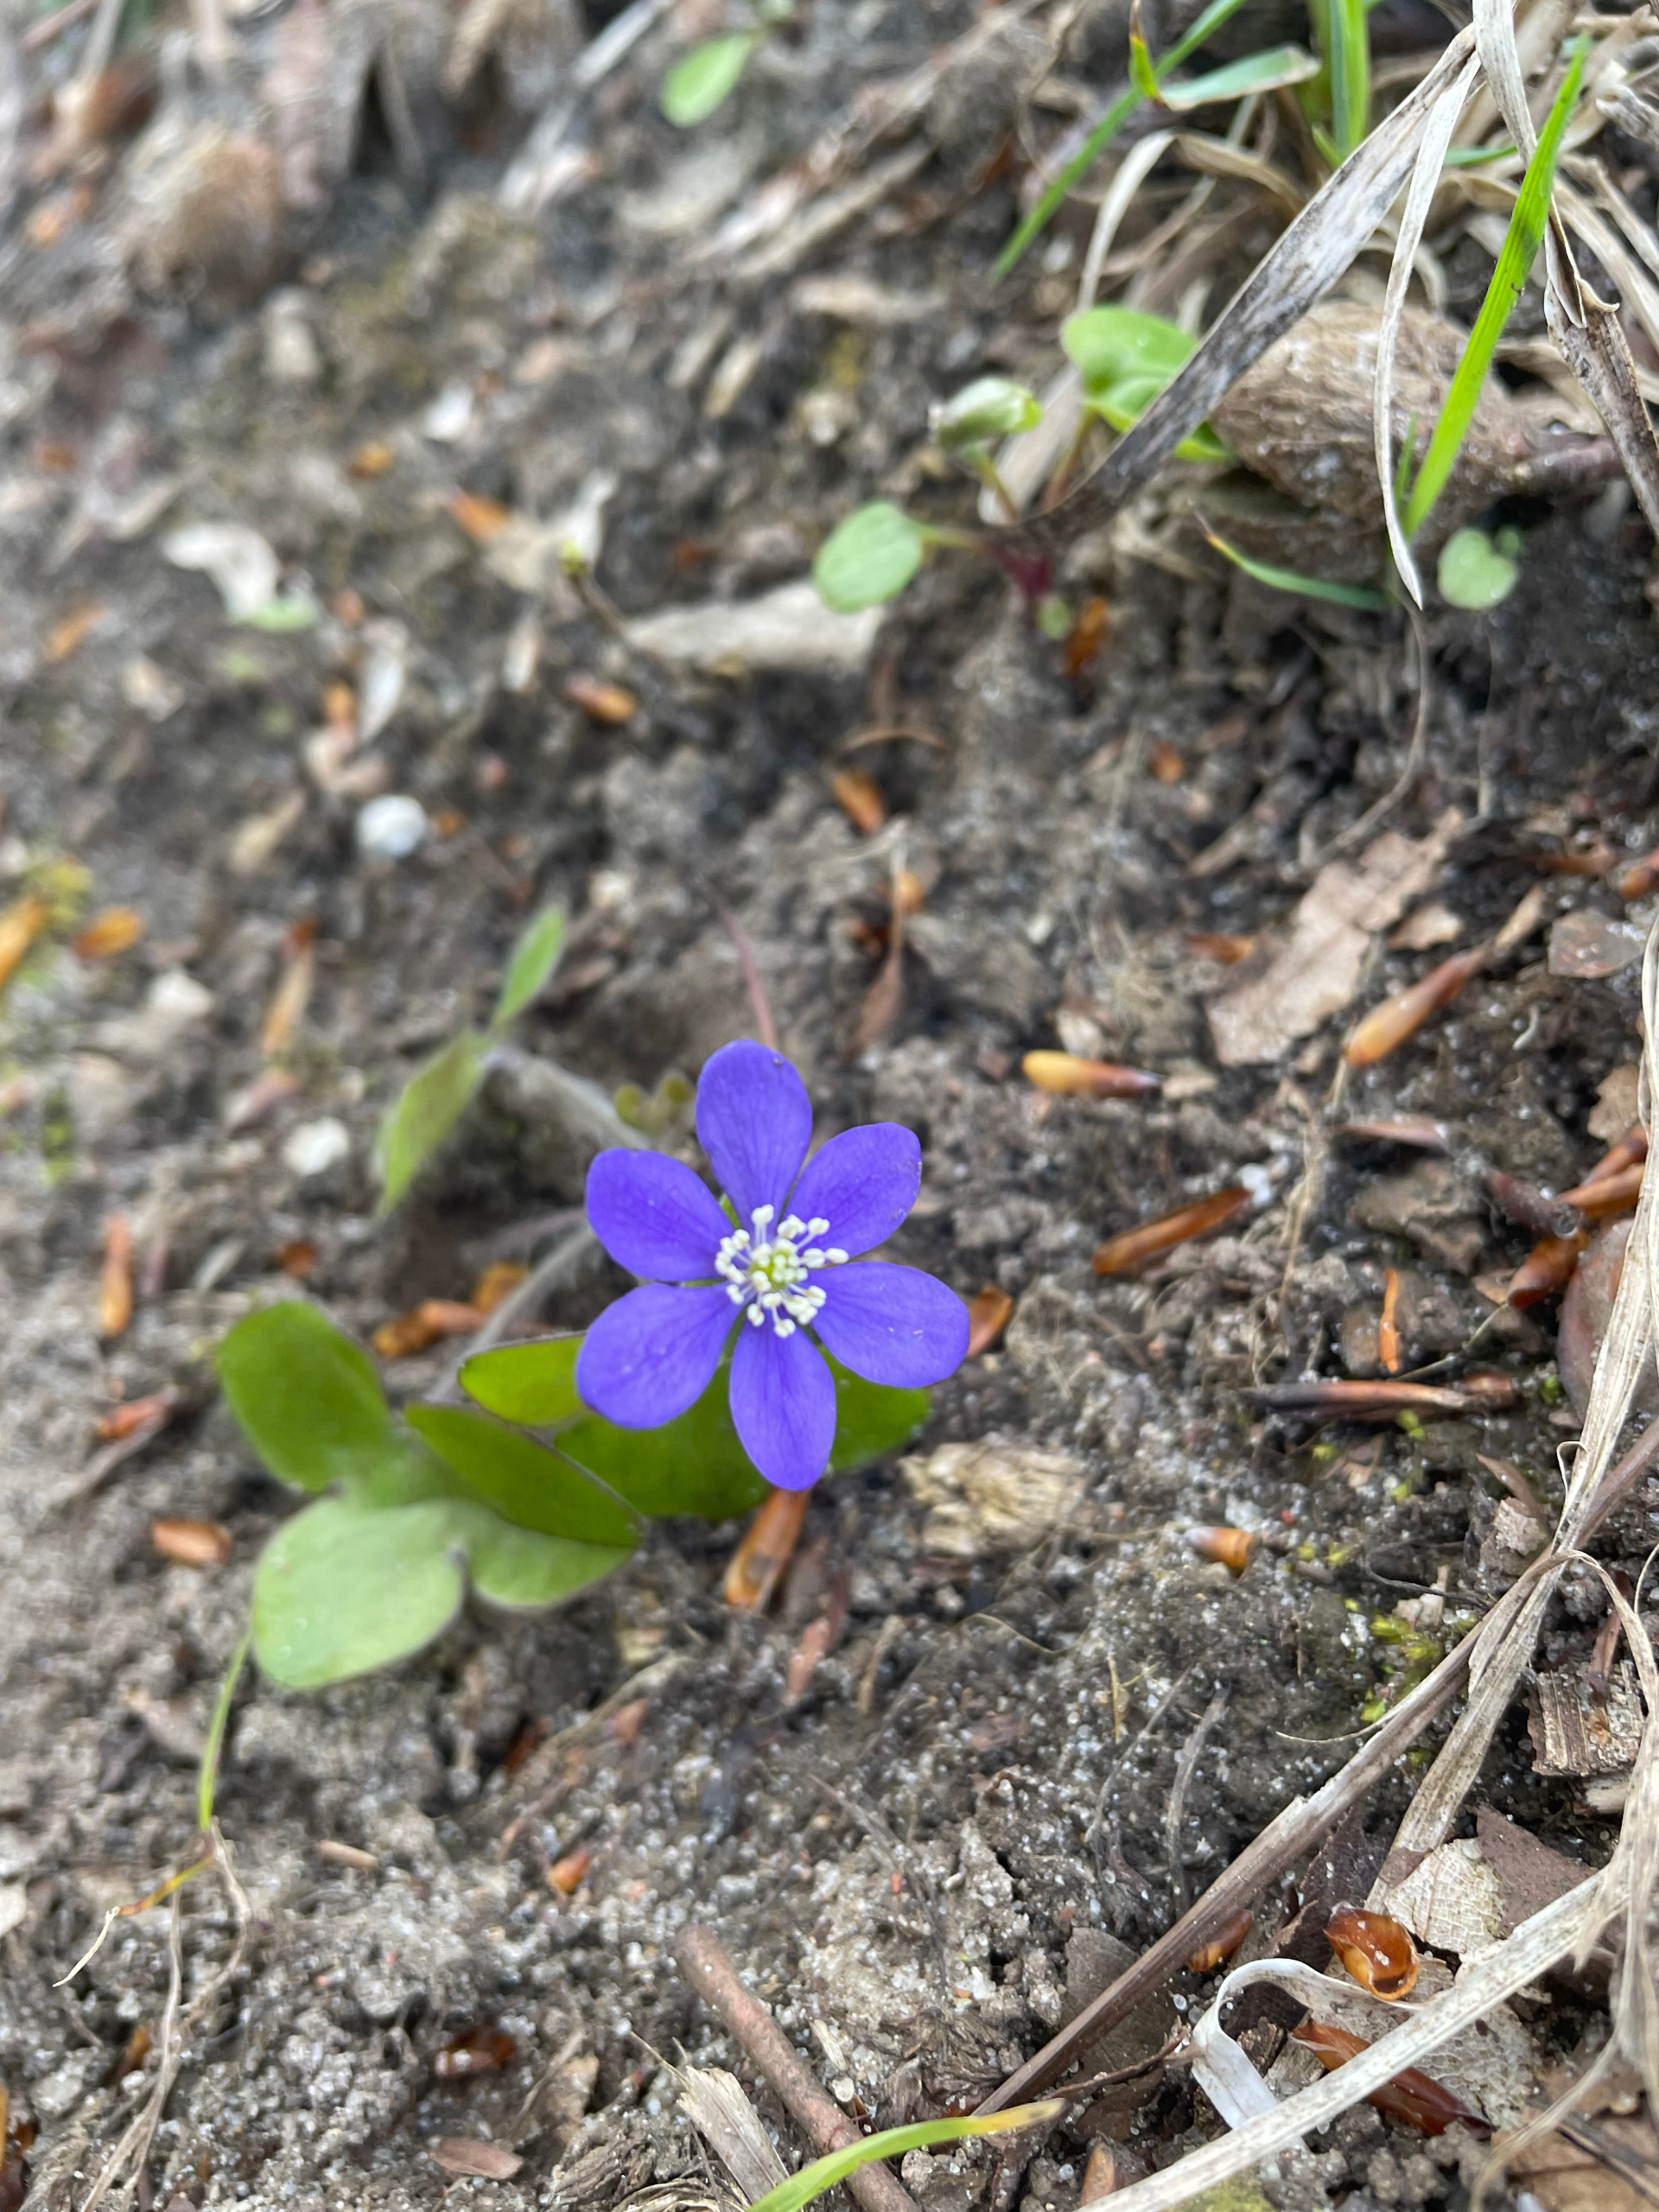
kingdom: Plantae
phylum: Tracheophyta
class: Magnoliopsida
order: Ranunculales
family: Ranunculaceae
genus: Hepatica
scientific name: Hepatica nobilis
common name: Blå anemone
